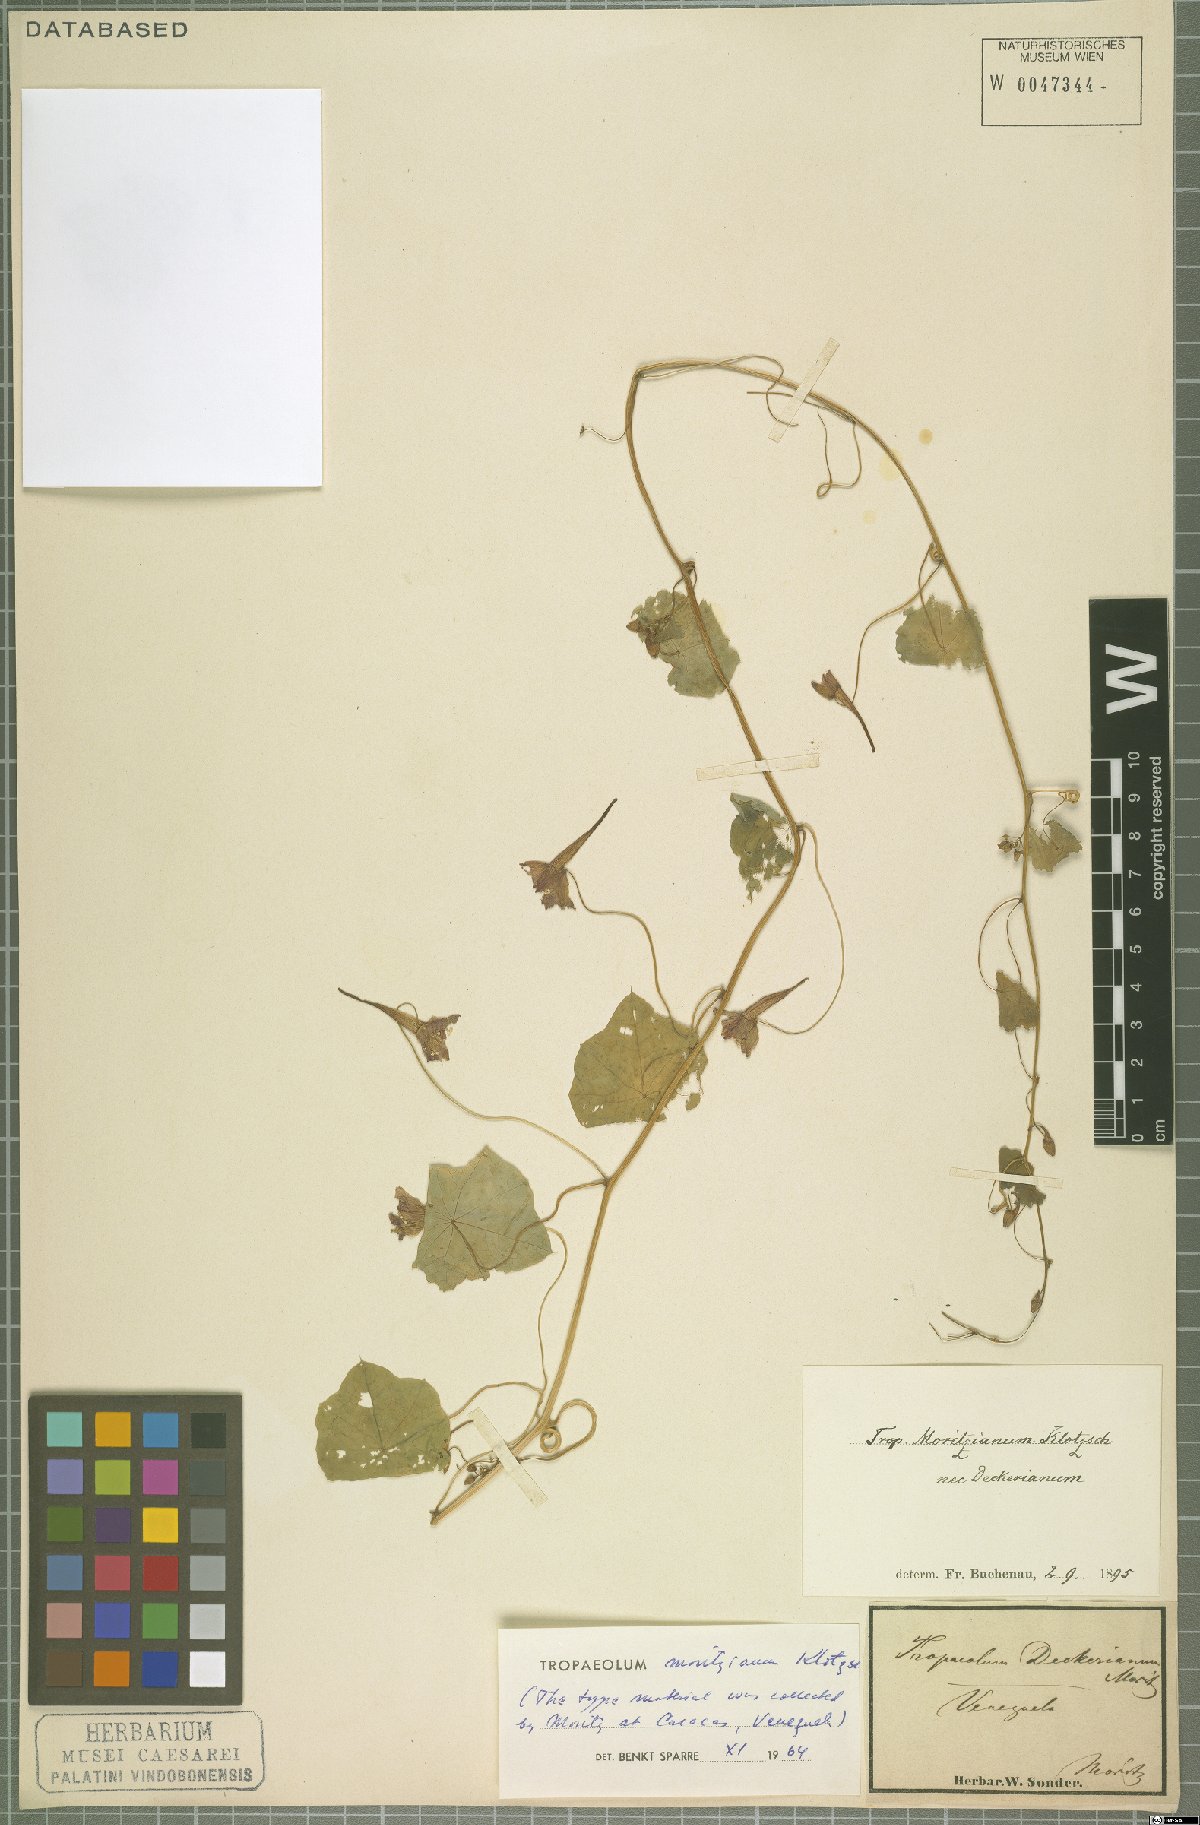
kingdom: Plantae
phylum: Tracheophyta
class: Magnoliopsida
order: Brassicales
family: Tropaeolaceae
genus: Tropaeolum
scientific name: Tropaeolum moritzianum
